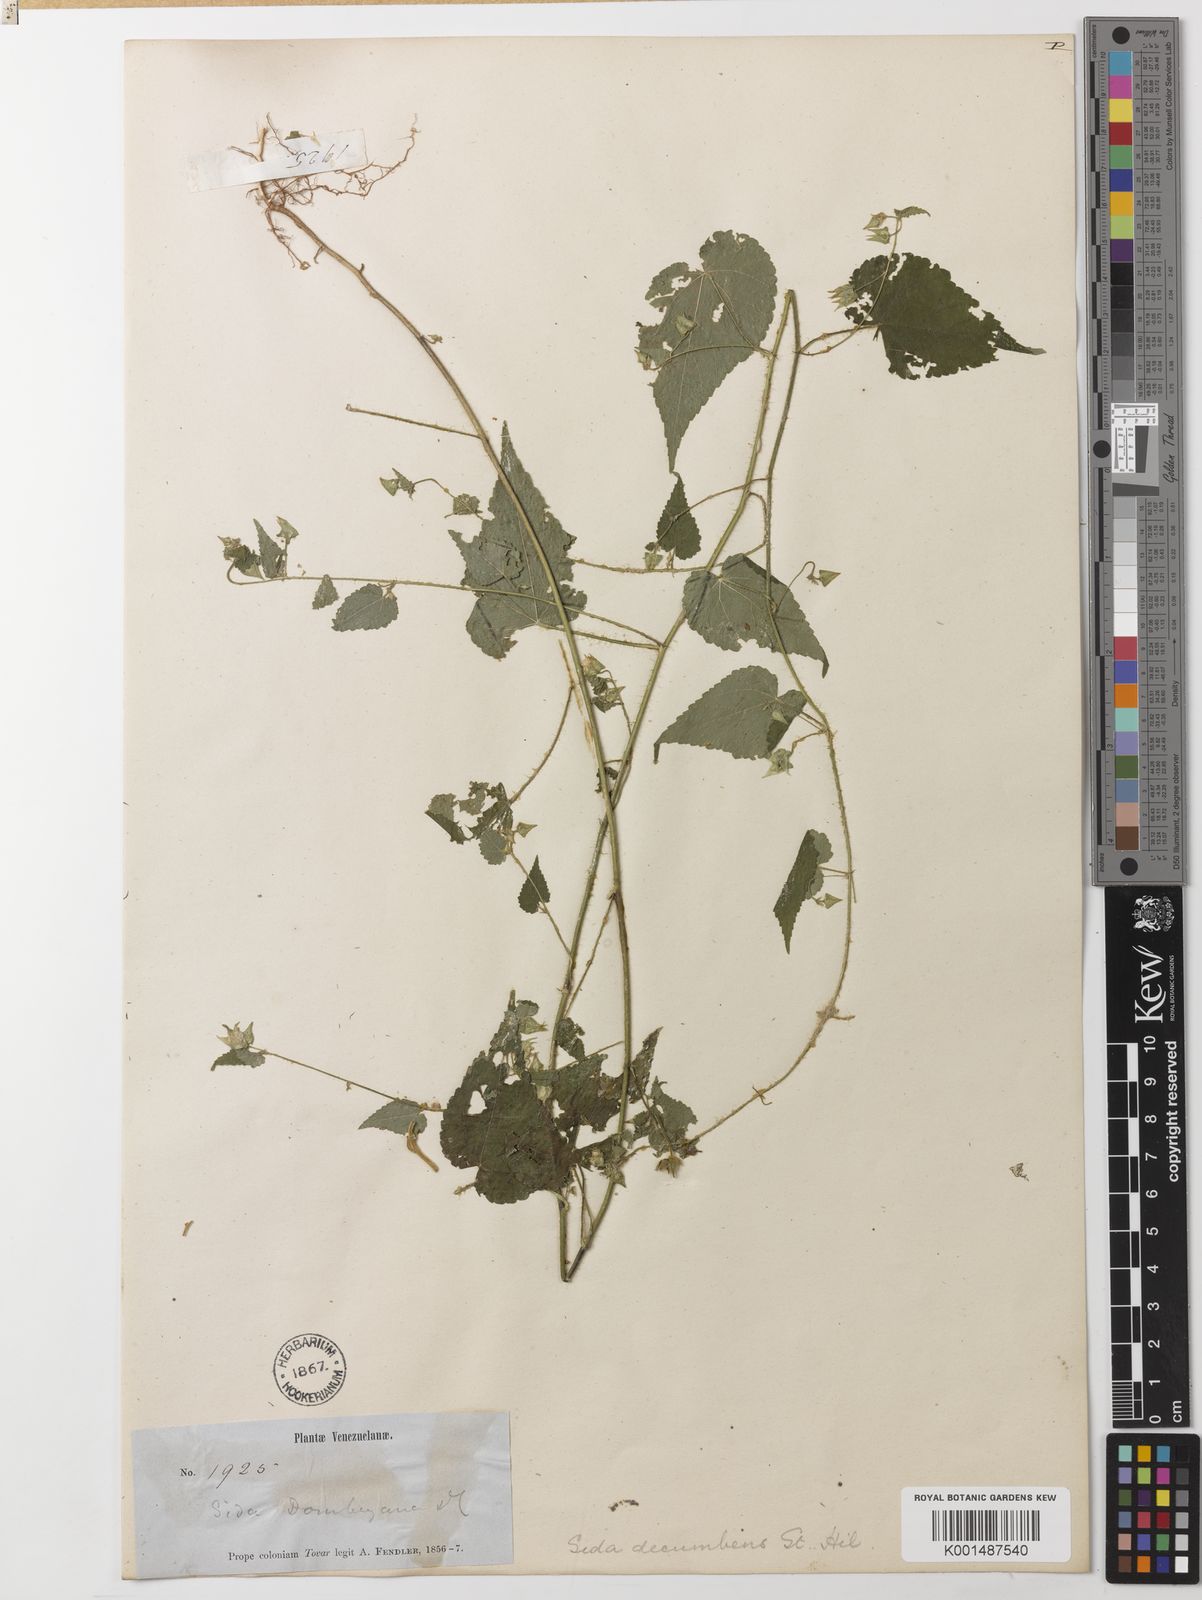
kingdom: Plantae
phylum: Tracheophyta
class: Magnoliopsida
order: Malvales
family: Malvaceae
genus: Sida
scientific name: Sida jussiaeana
